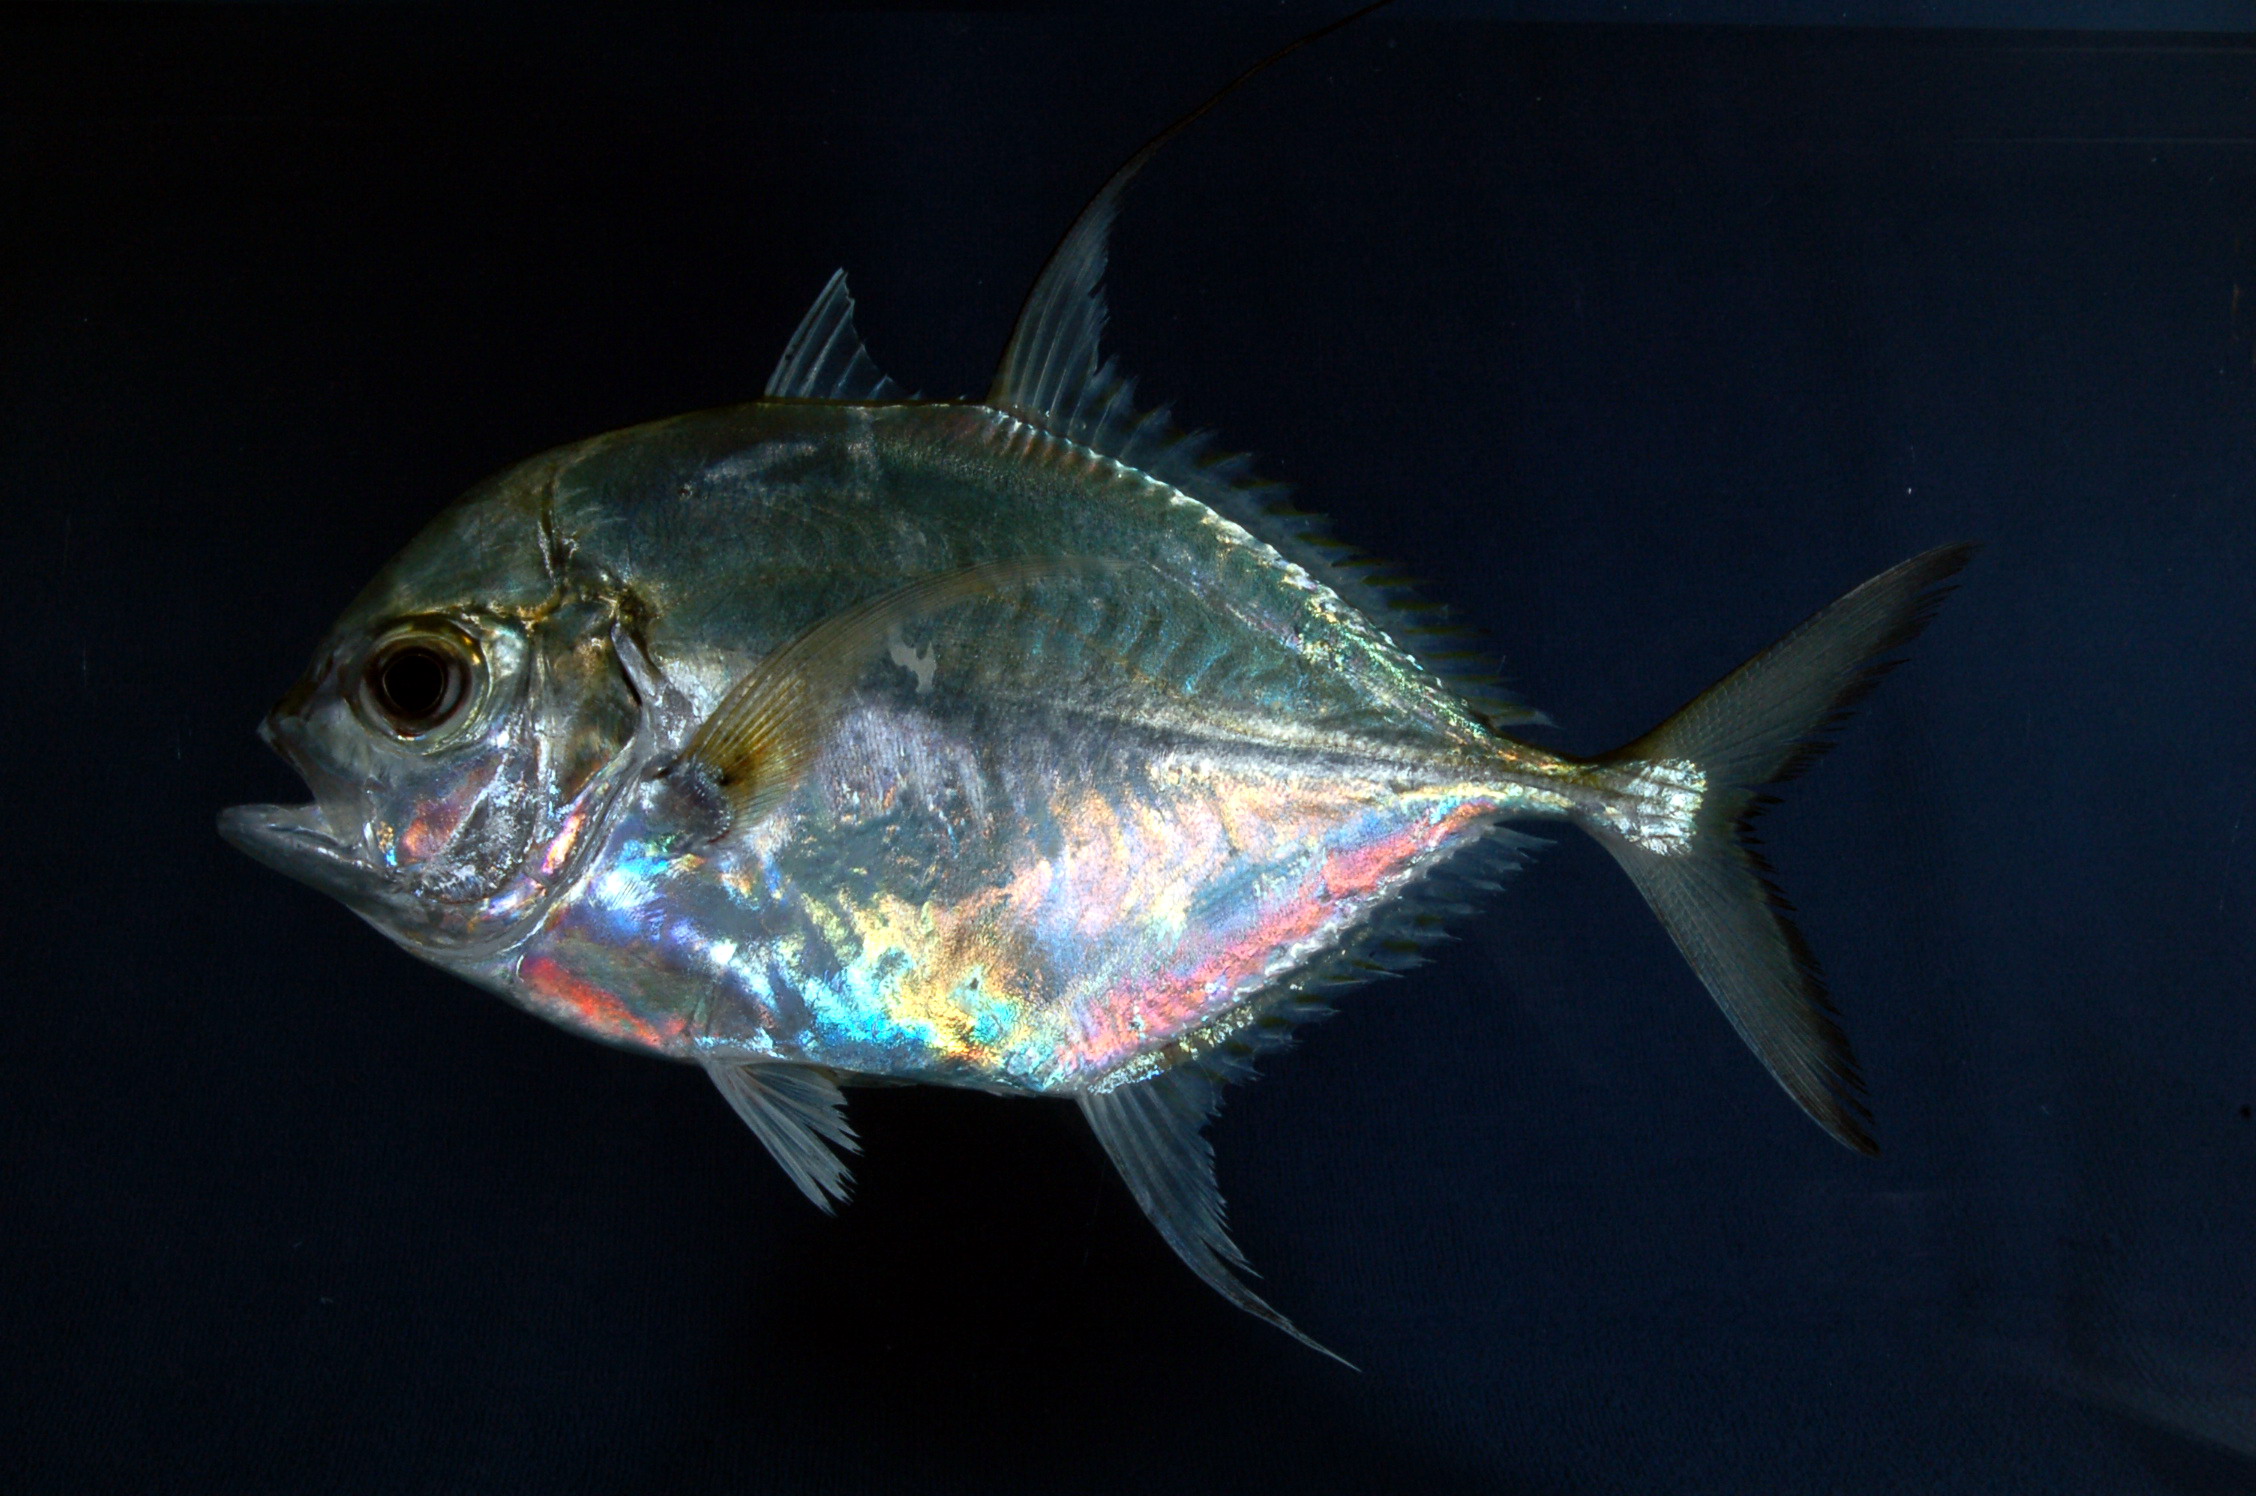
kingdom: Animalia
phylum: Chordata
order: Perciformes
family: Carangidae
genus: Carangoides
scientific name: Carangoides coeruleopinnatus
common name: Coastal trevally
